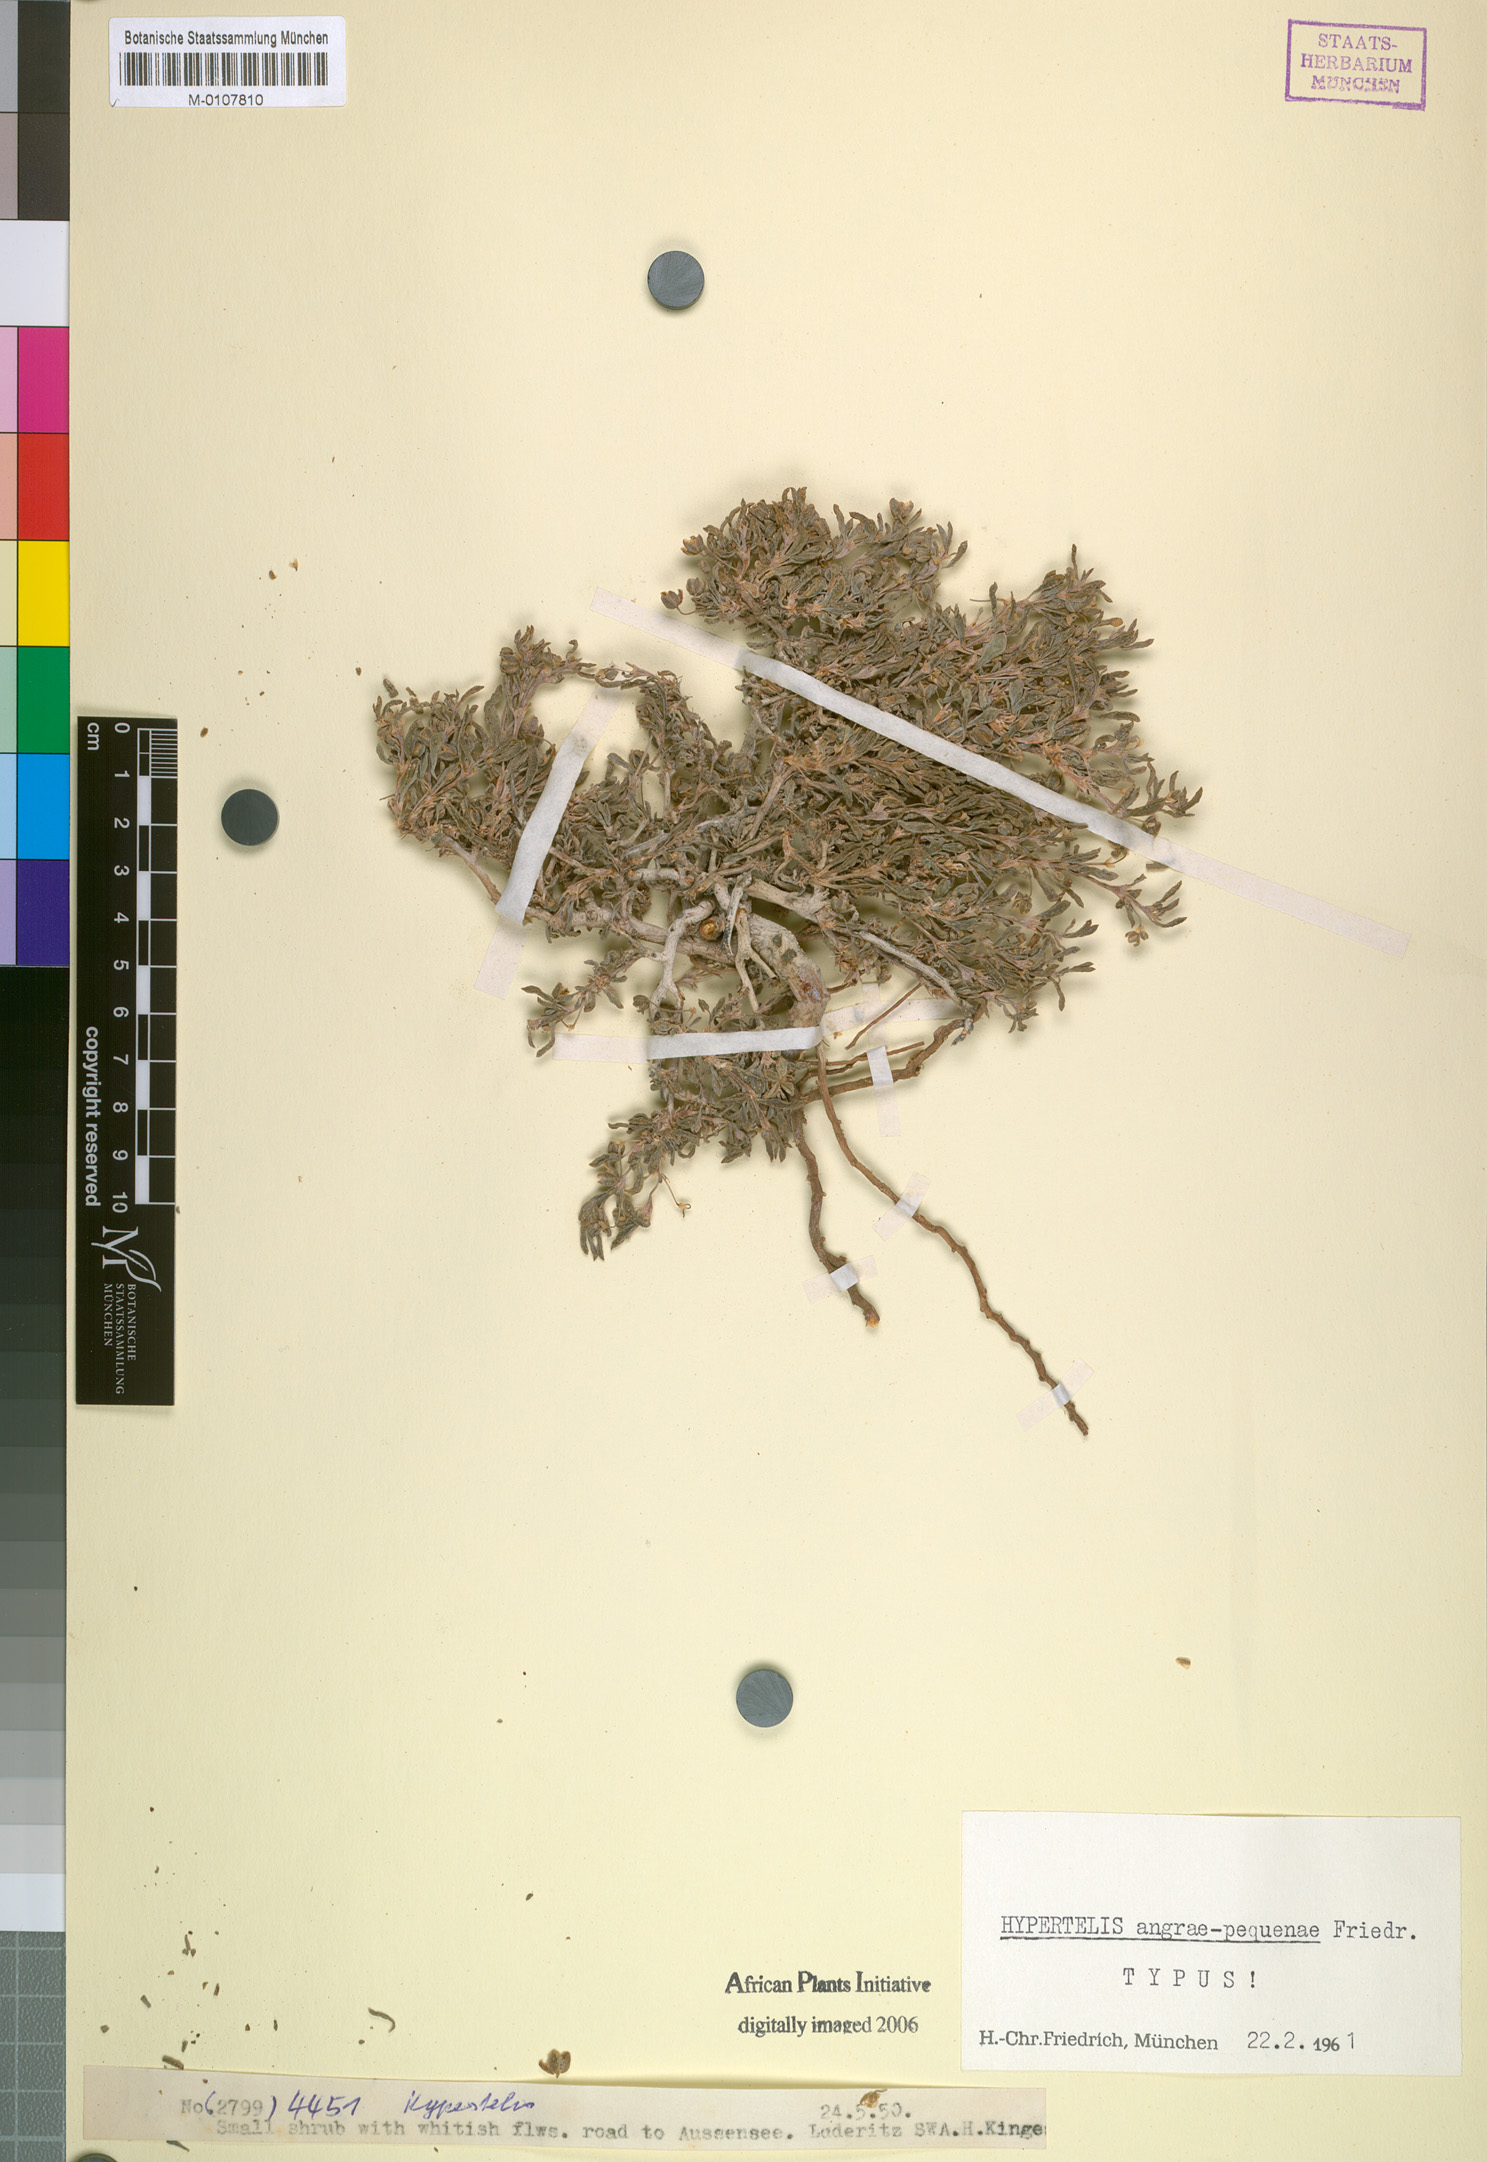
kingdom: Plantae
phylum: Tracheophyta
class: Magnoliopsida
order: Caryophyllales
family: Kewaceae
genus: Kewa
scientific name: Kewa angrae-pequenae
